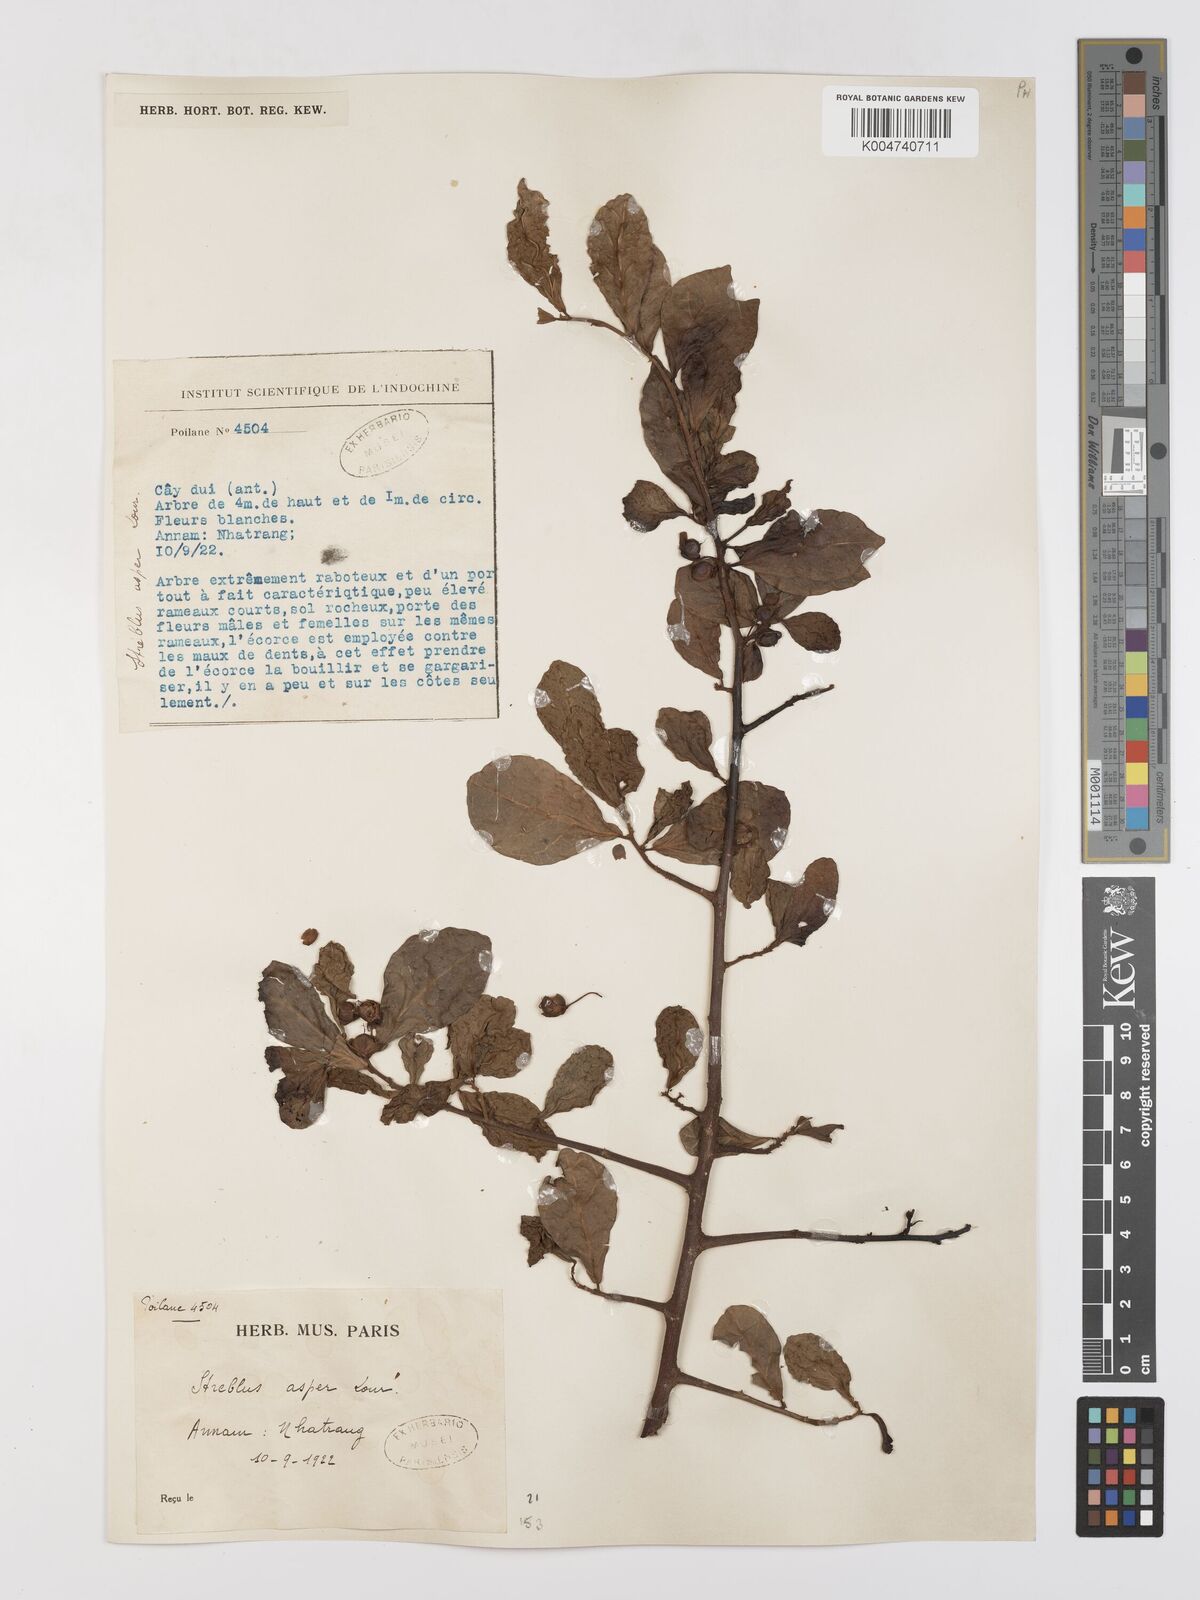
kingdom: Plantae
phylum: Tracheophyta
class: Magnoliopsida
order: Rosales
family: Moraceae
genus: Streblus
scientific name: Streblus asper
